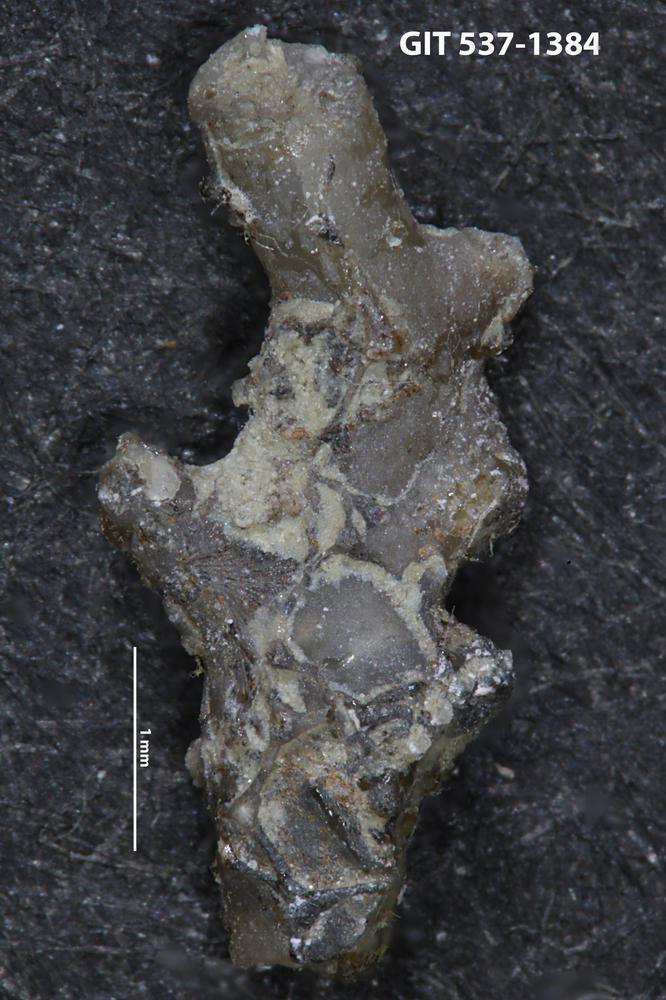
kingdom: Animalia
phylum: Echinodermata
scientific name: Echinodermata
